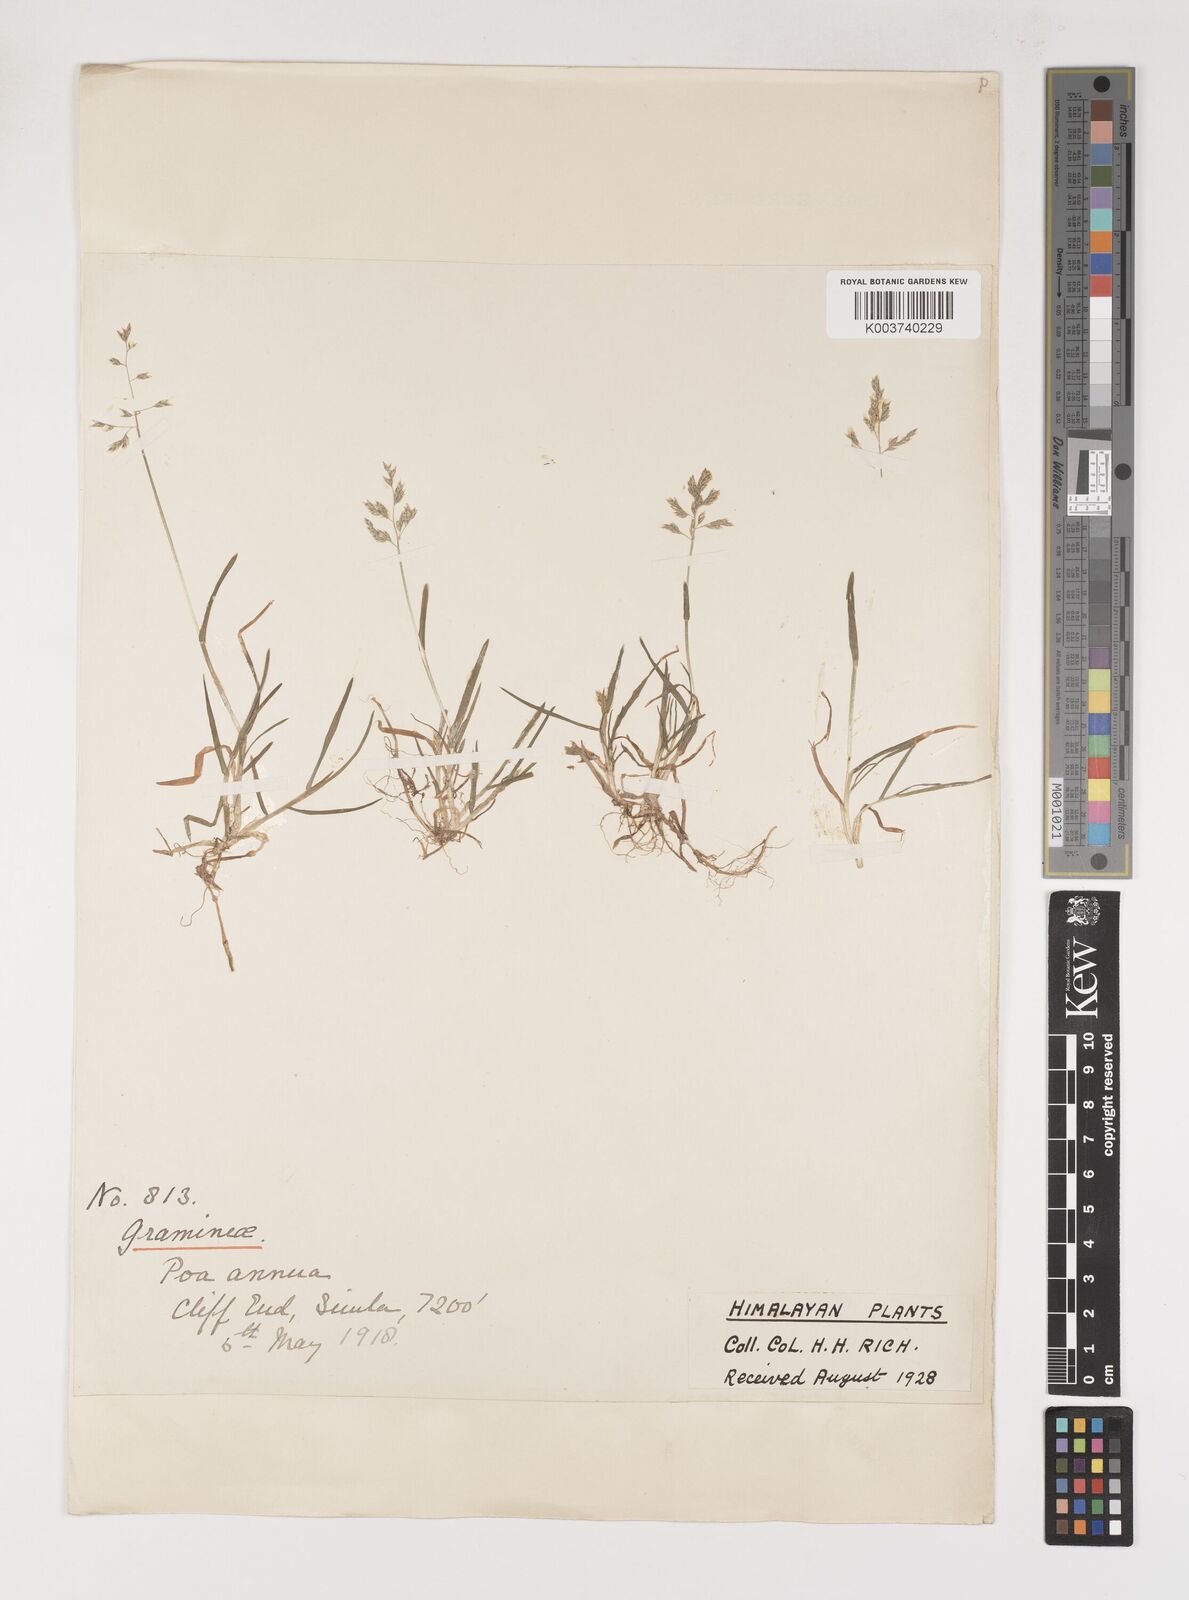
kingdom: Plantae
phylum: Tracheophyta
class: Liliopsida
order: Poales
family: Poaceae
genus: Poa
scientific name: Poa annua
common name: Annual bluegrass
